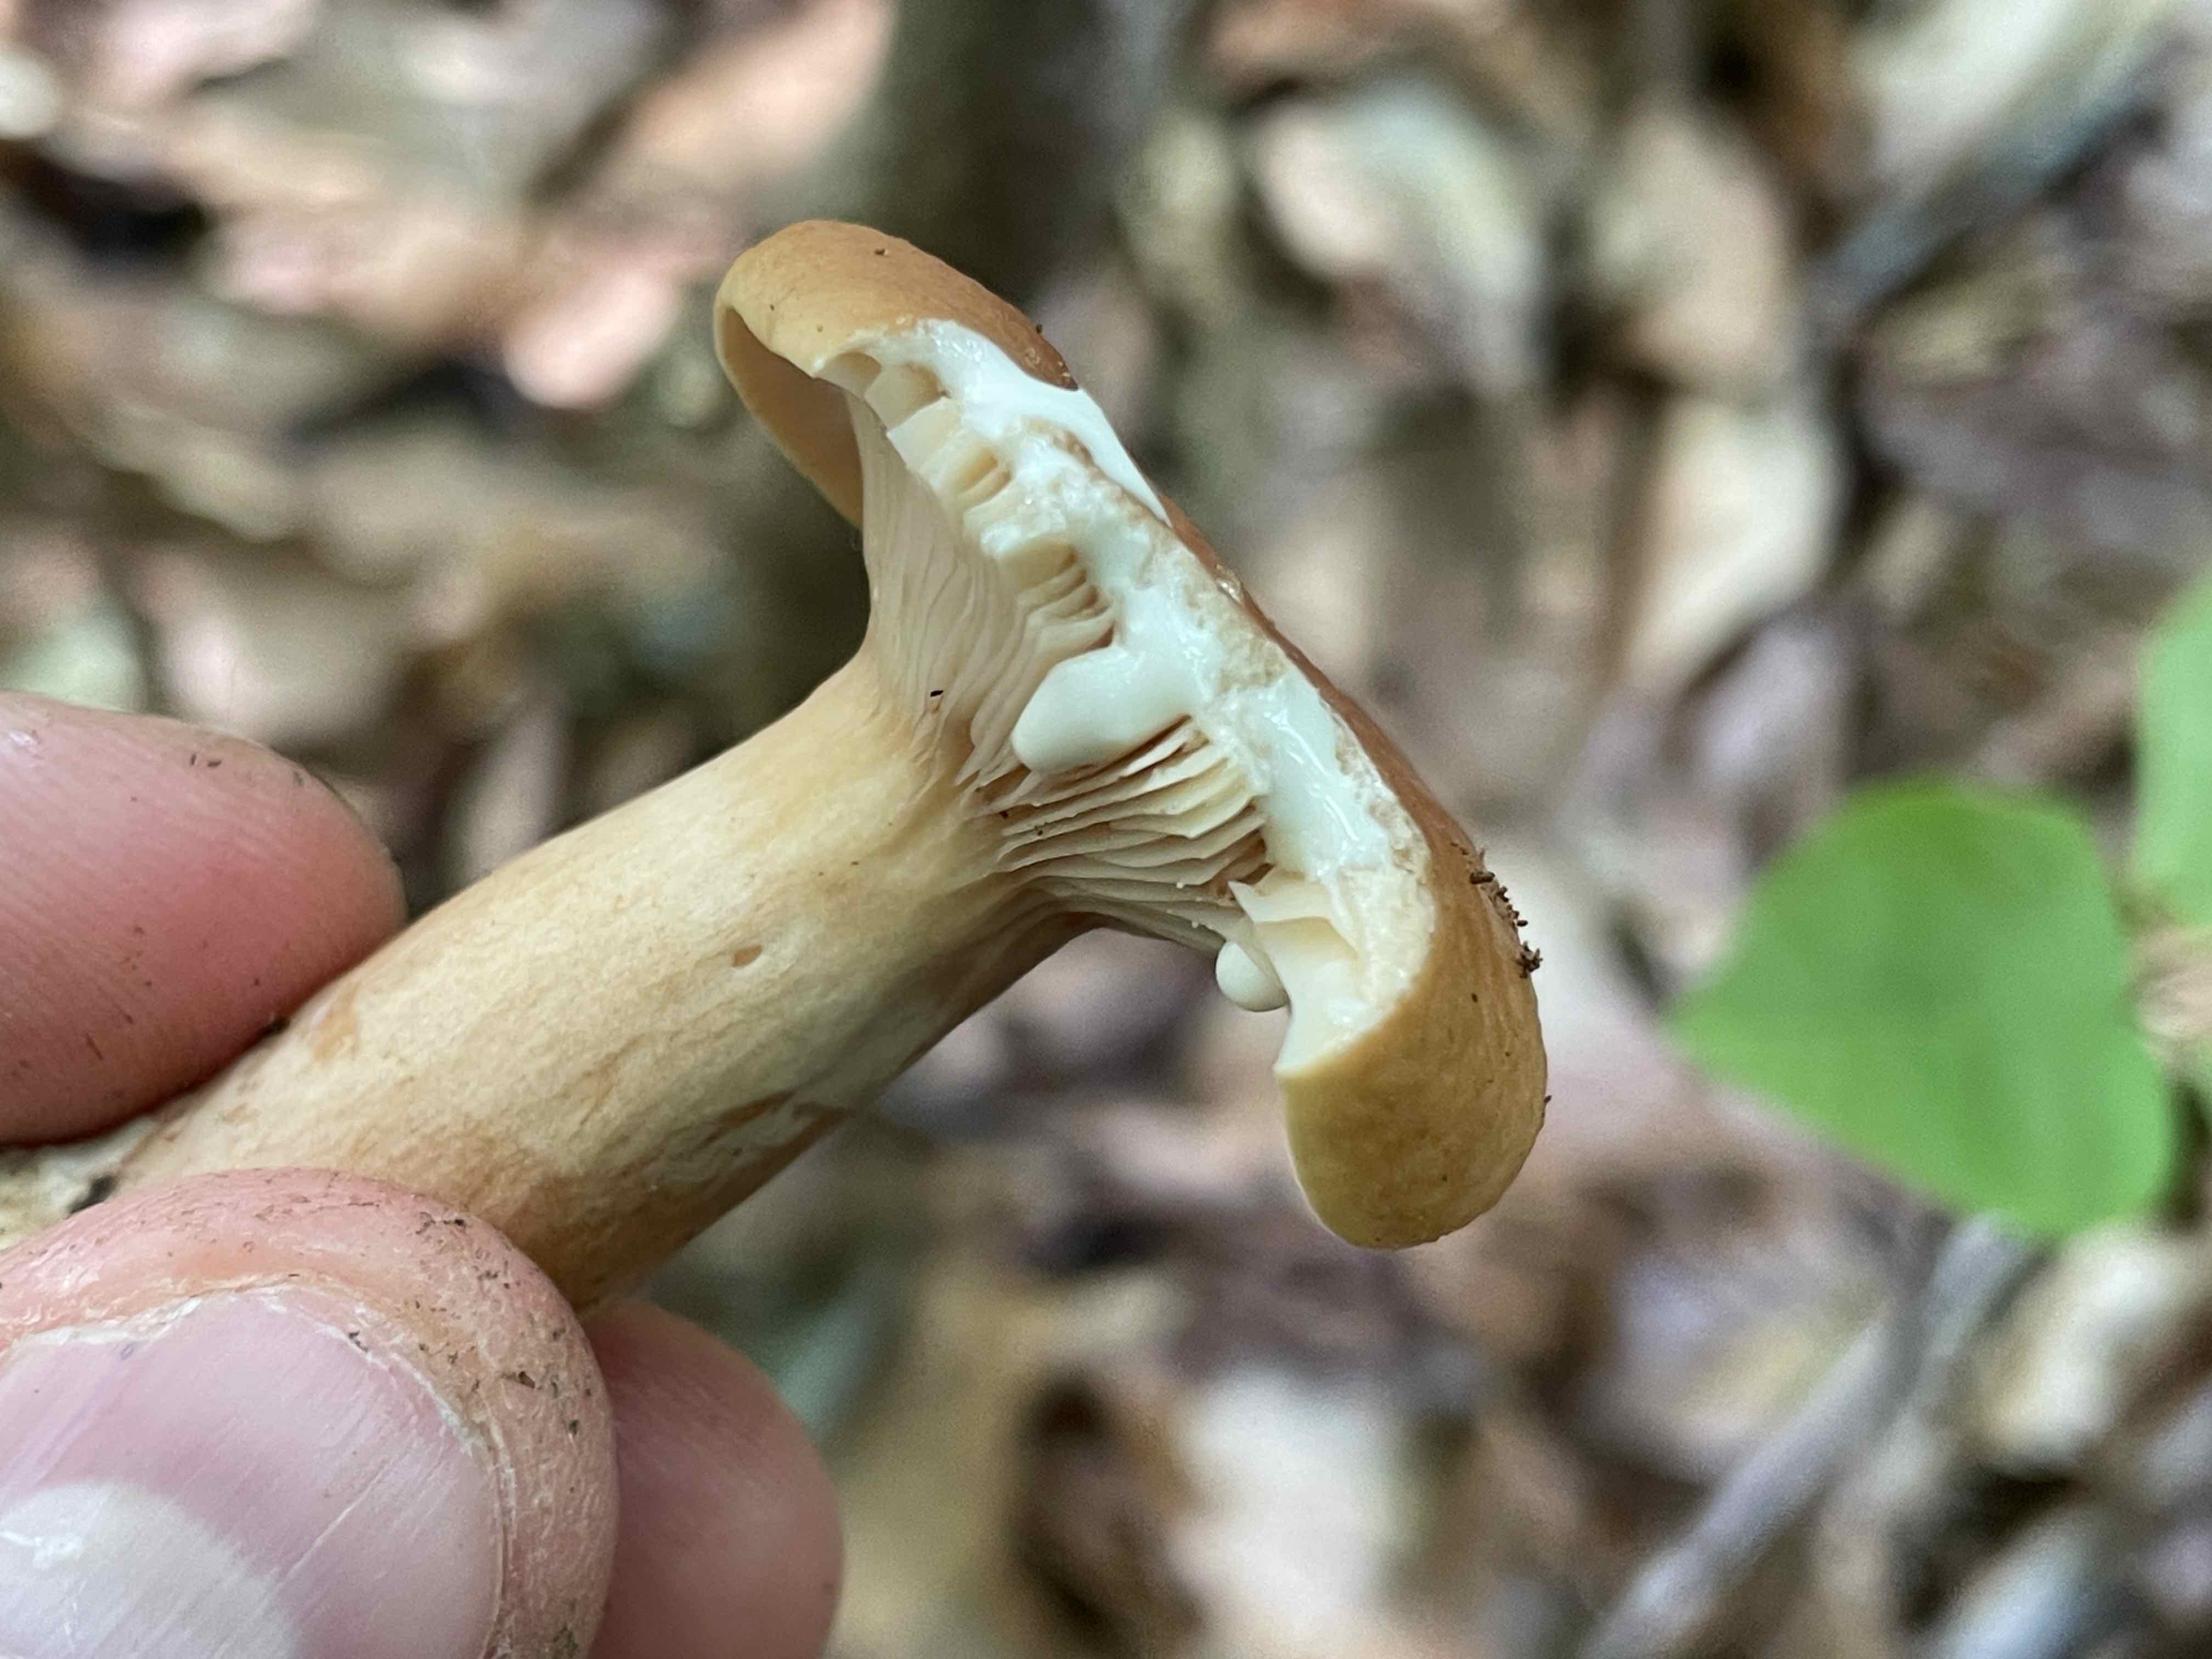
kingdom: Fungi
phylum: Basidiomycota
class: Agaricomycetes
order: Russulales
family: Russulaceae
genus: Lactarius
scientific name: Lactarius rubrocinctus
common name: halsbånd-mælkehat
